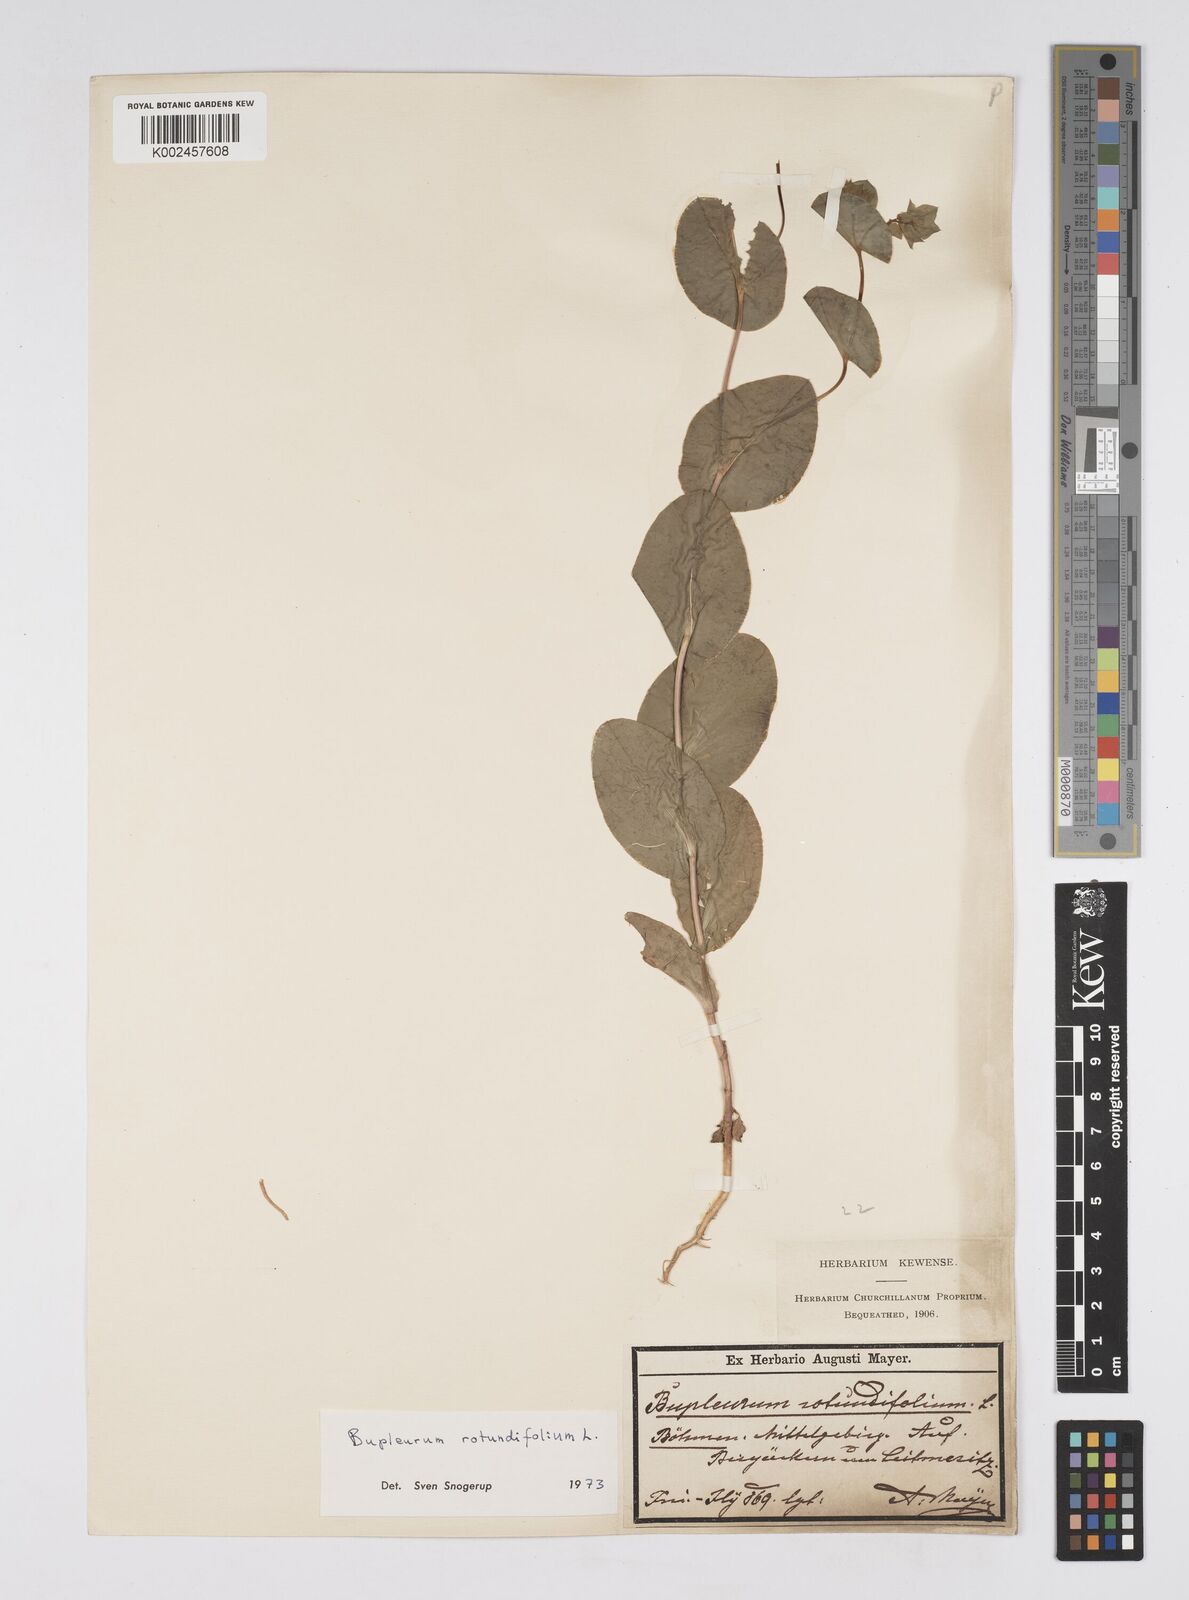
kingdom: Plantae
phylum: Tracheophyta
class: Magnoliopsida
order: Apiales
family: Apiaceae
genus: Bupleurum
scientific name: Bupleurum rotundifolium
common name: Thorow-wax
